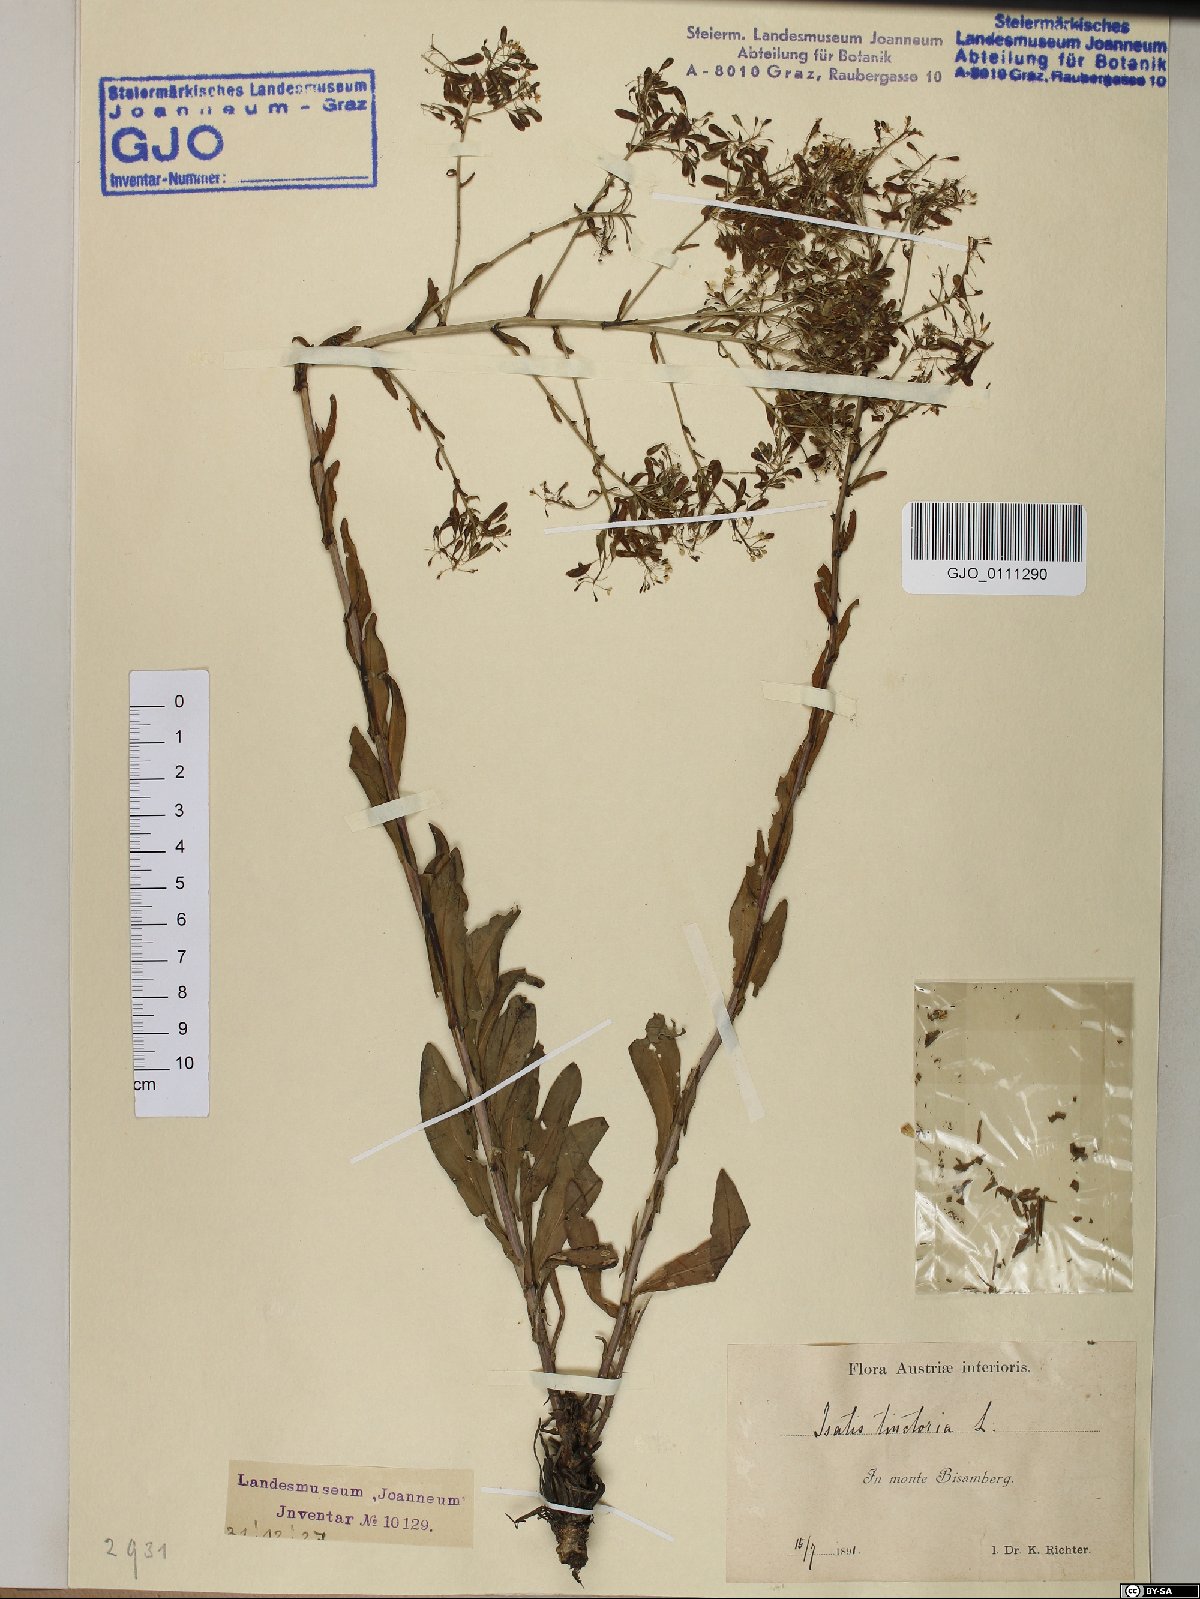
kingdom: Plantae
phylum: Tracheophyta
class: Magnoliopsida
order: Brassicales
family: Brassicaceae
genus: Isatis
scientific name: Isatis tinctoria
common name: Woad
